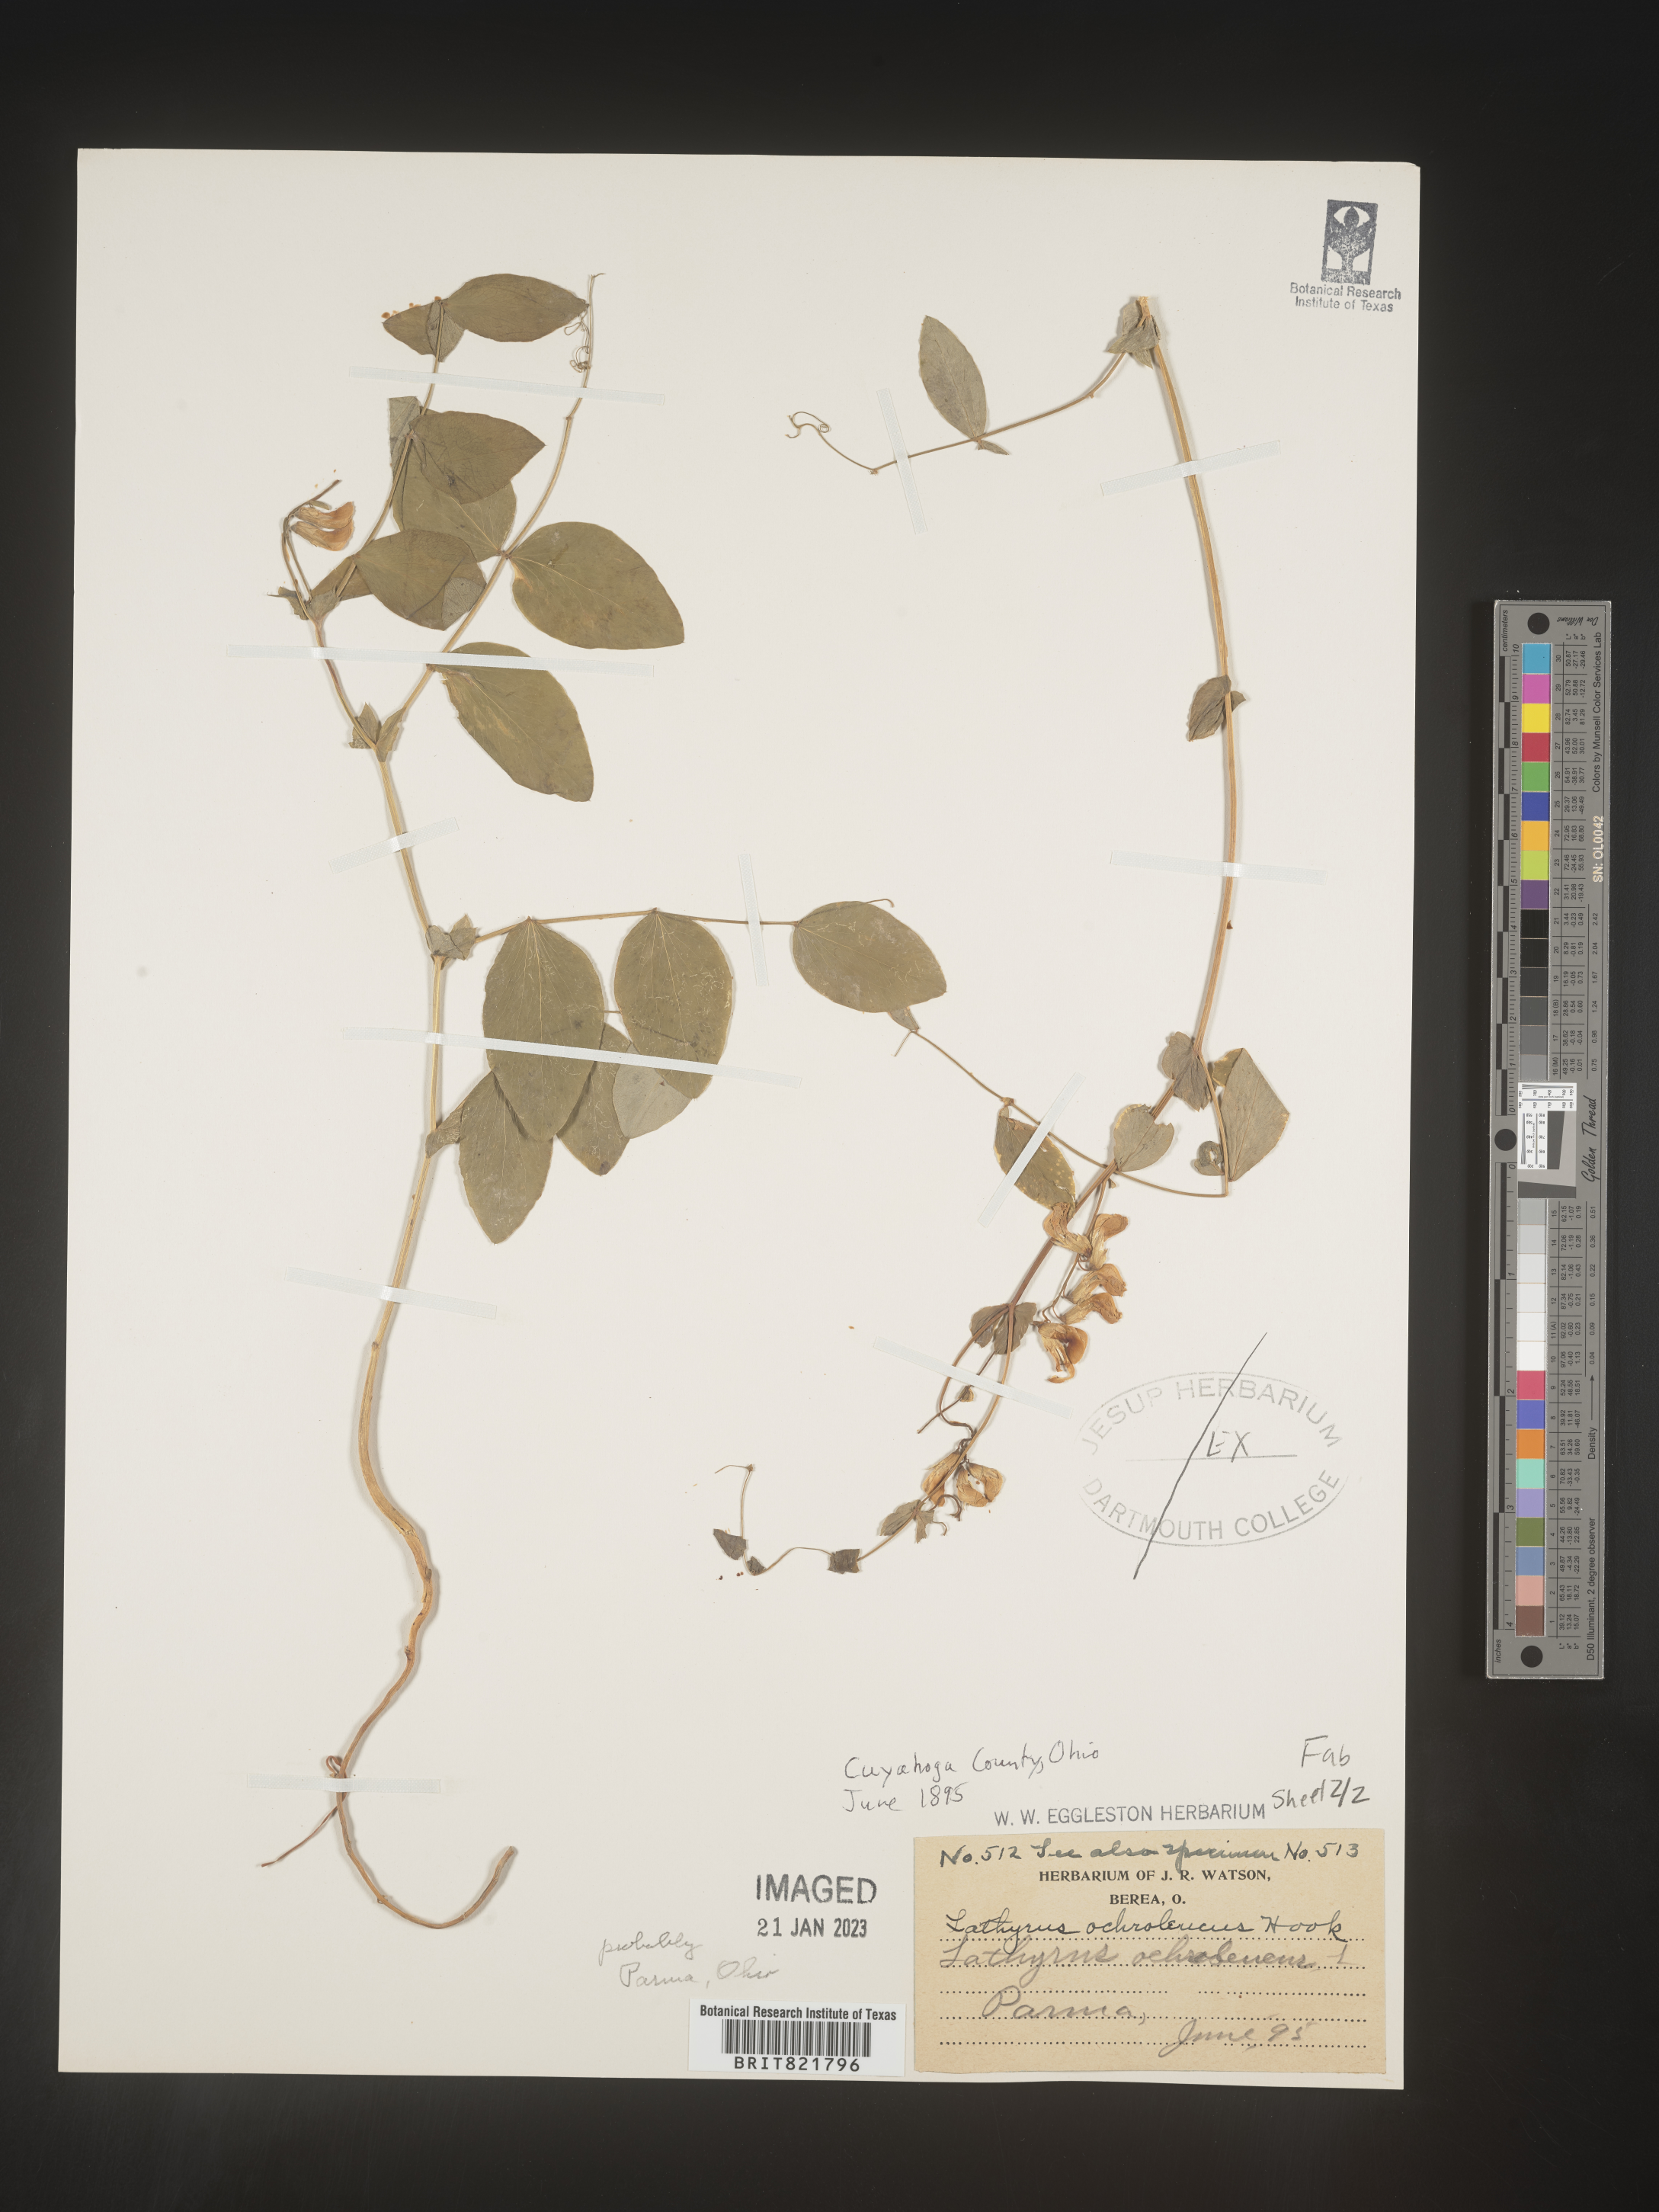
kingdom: Plantae
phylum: Tracheophyta
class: Magnoliopsida
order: Fabales
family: Fabaceae
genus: Lathyrus
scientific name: Lathyrus
